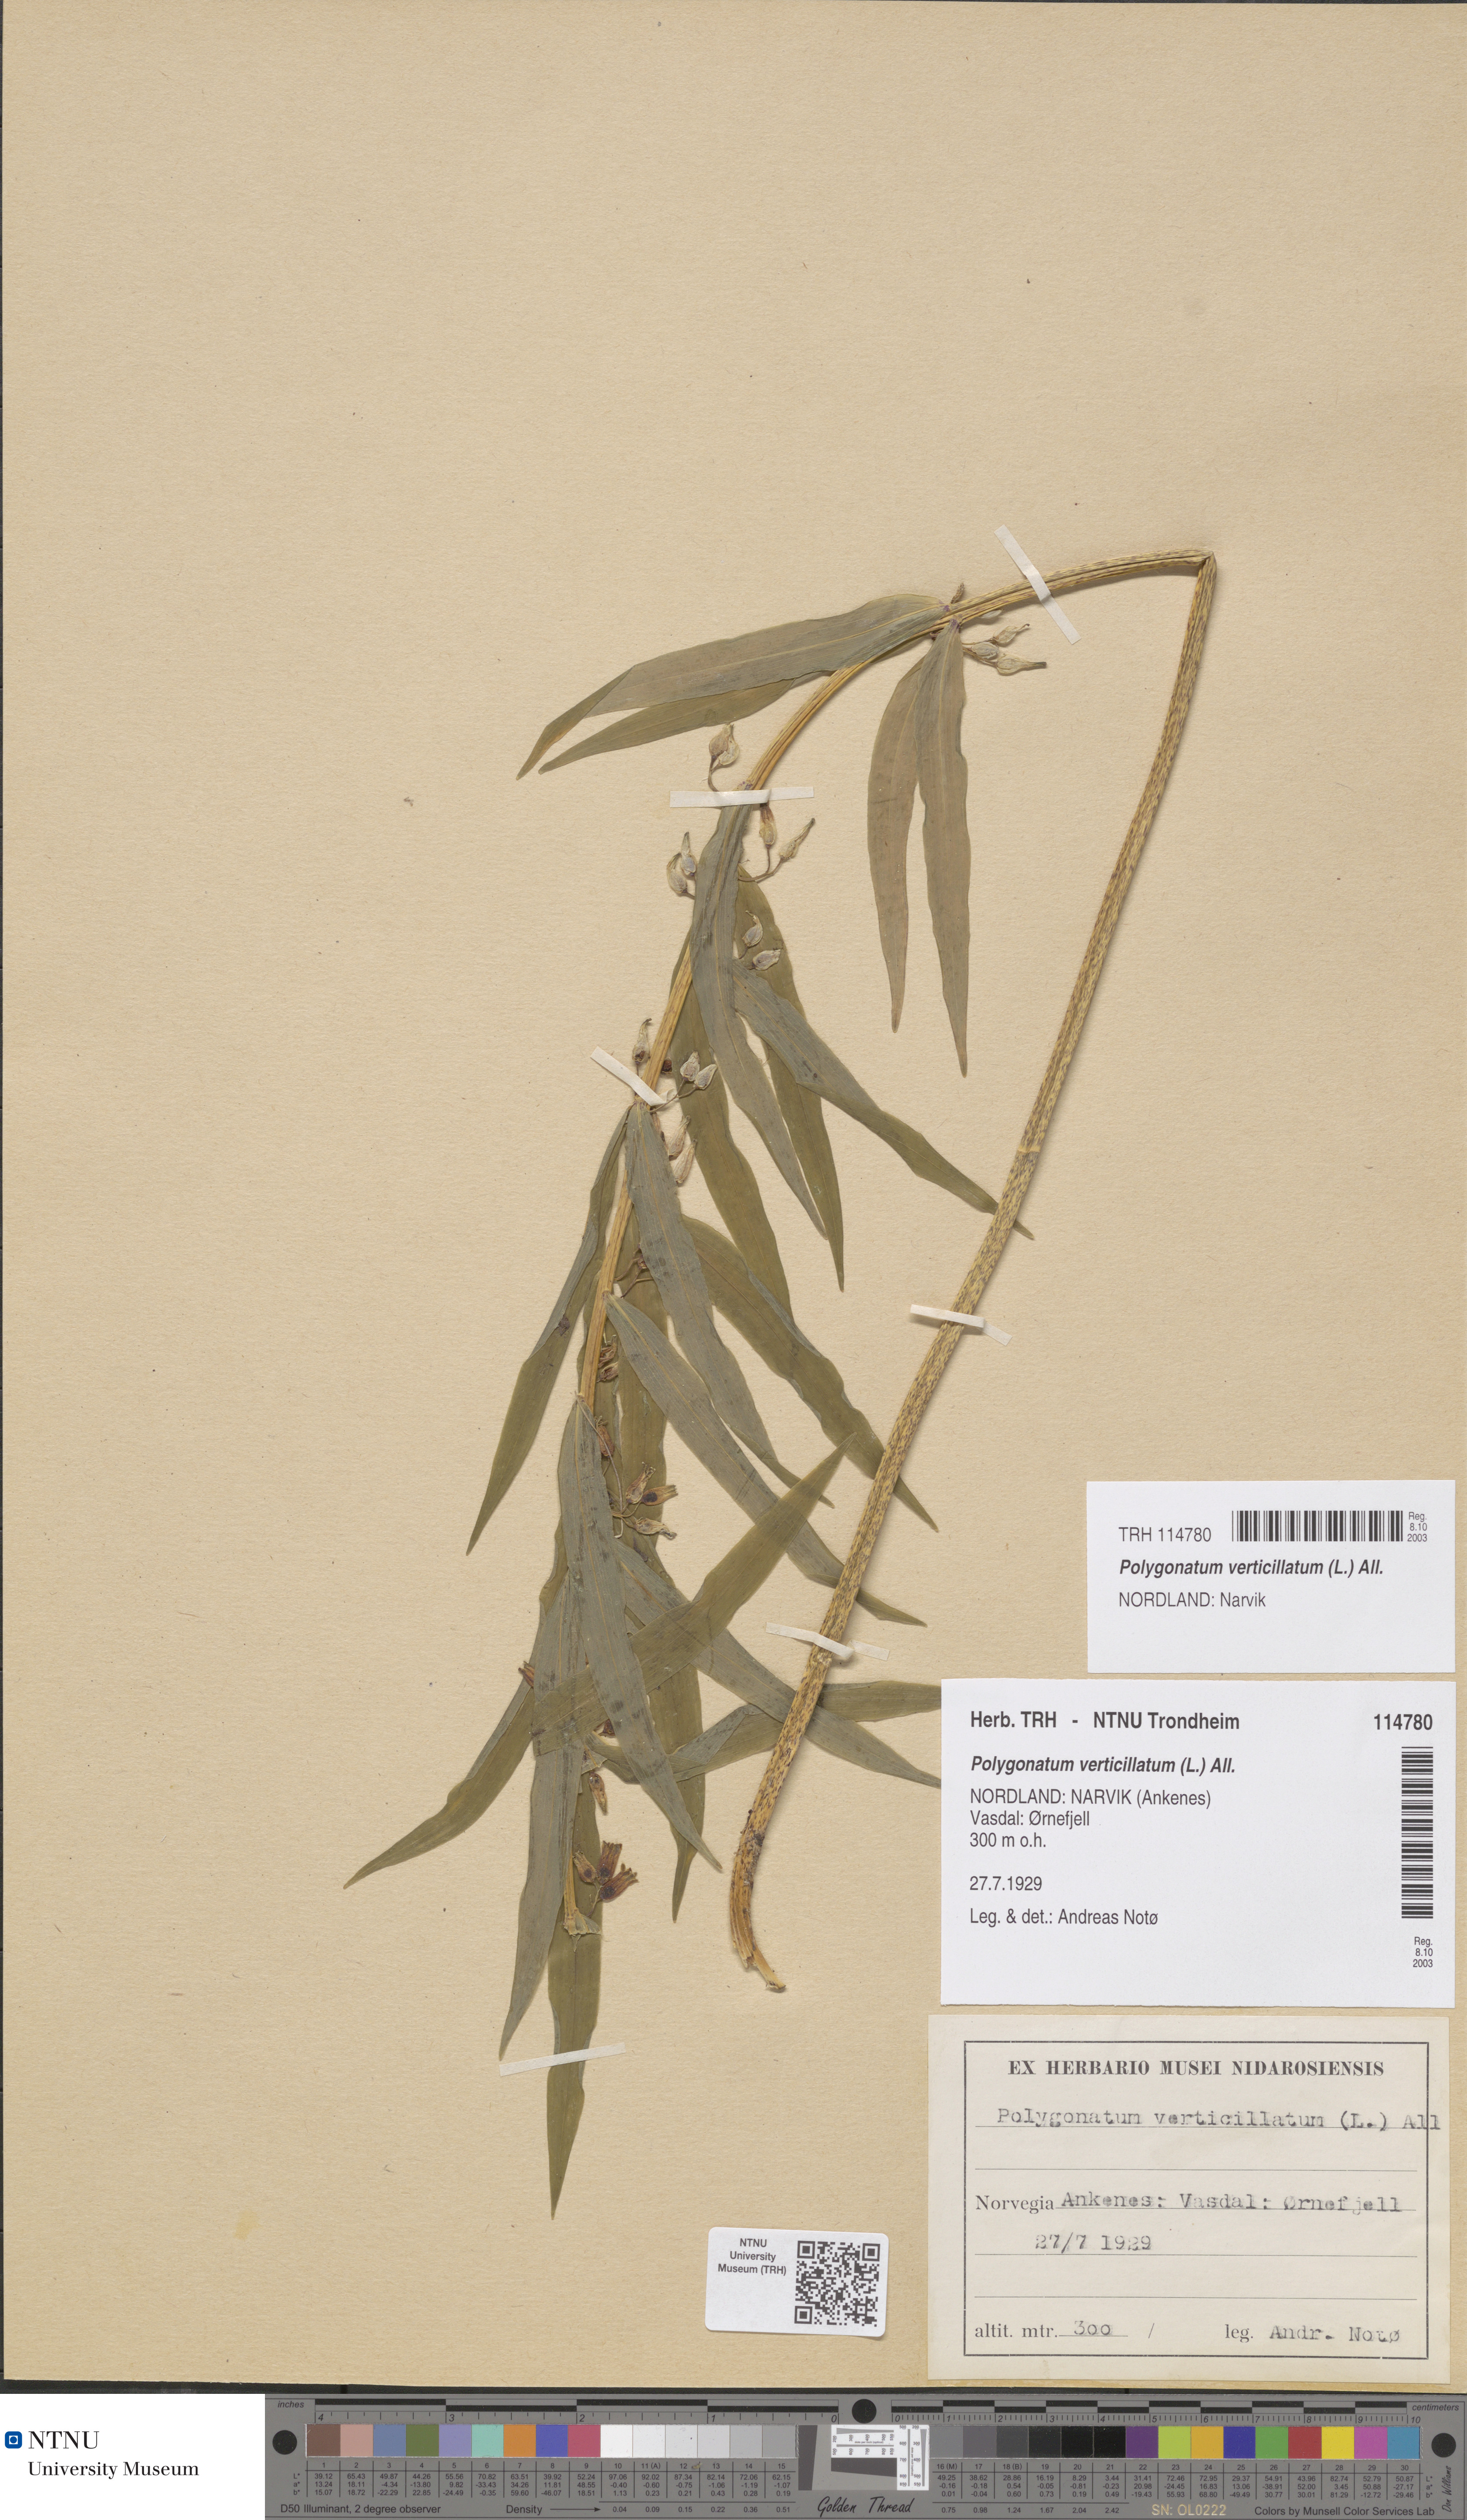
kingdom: Plantae
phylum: Tracheophyta
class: Liliopsida
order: Asparagales
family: Asparagaceae
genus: Polygonatum
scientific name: Polygonatum verticillatum
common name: Whorled solomon's-seal
